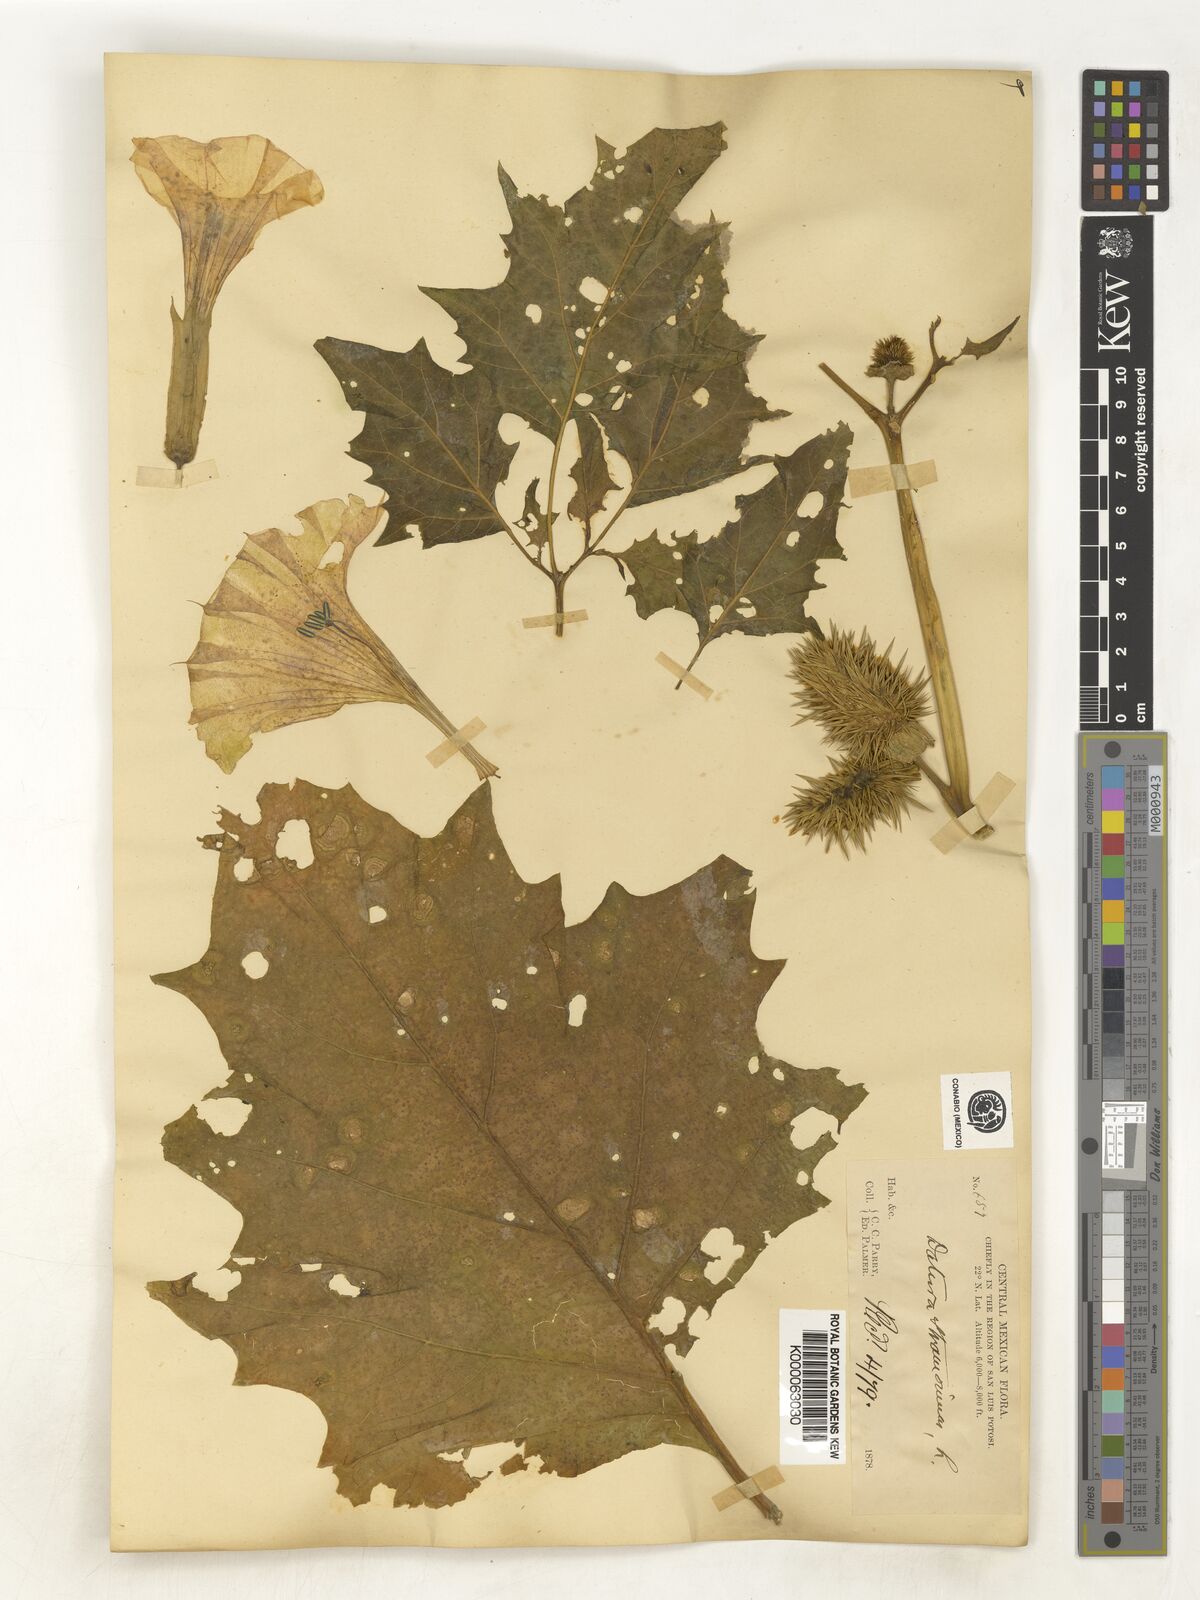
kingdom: Plantae
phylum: Tracheophyta
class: Magnoliopsida
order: Solanales
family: Solanaceae
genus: Datura
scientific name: Datura stramonium
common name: Thorn-apple
